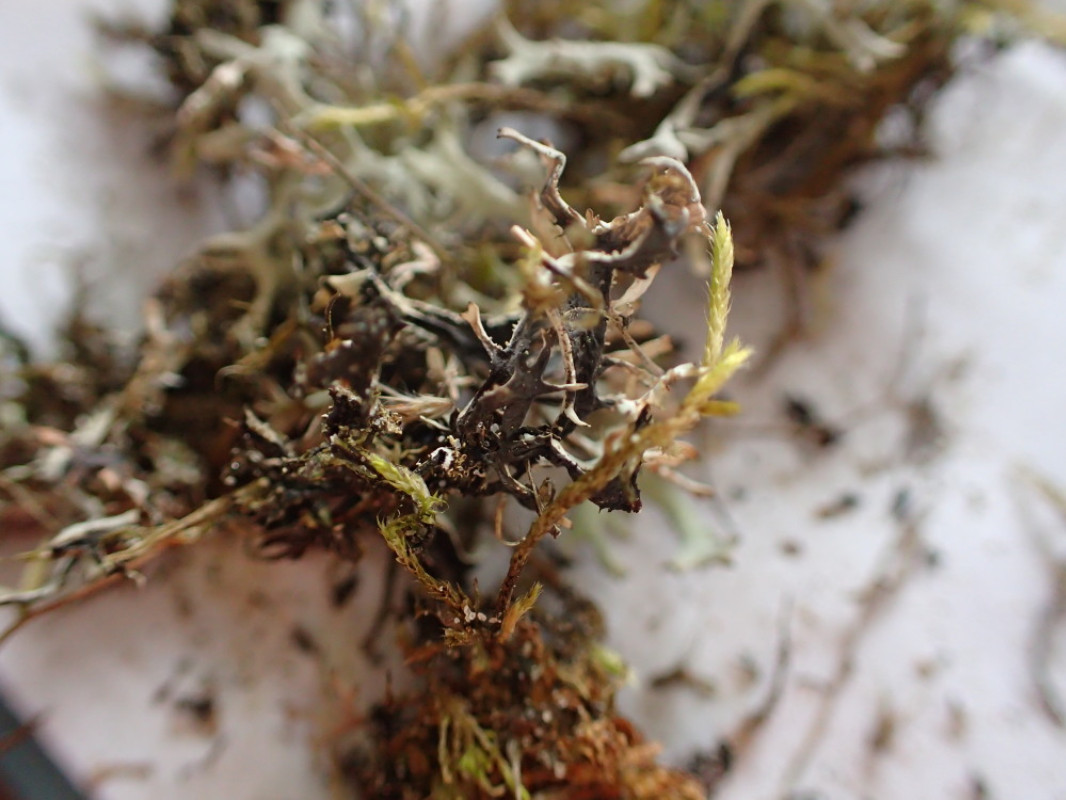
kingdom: Fungi
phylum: Ascomycota
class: Lecanoromycetes
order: Lecanorales
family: Parmeliaceae
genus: Pseudevernia
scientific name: Pseudevernia furfuracea
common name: grå fyrrelav
